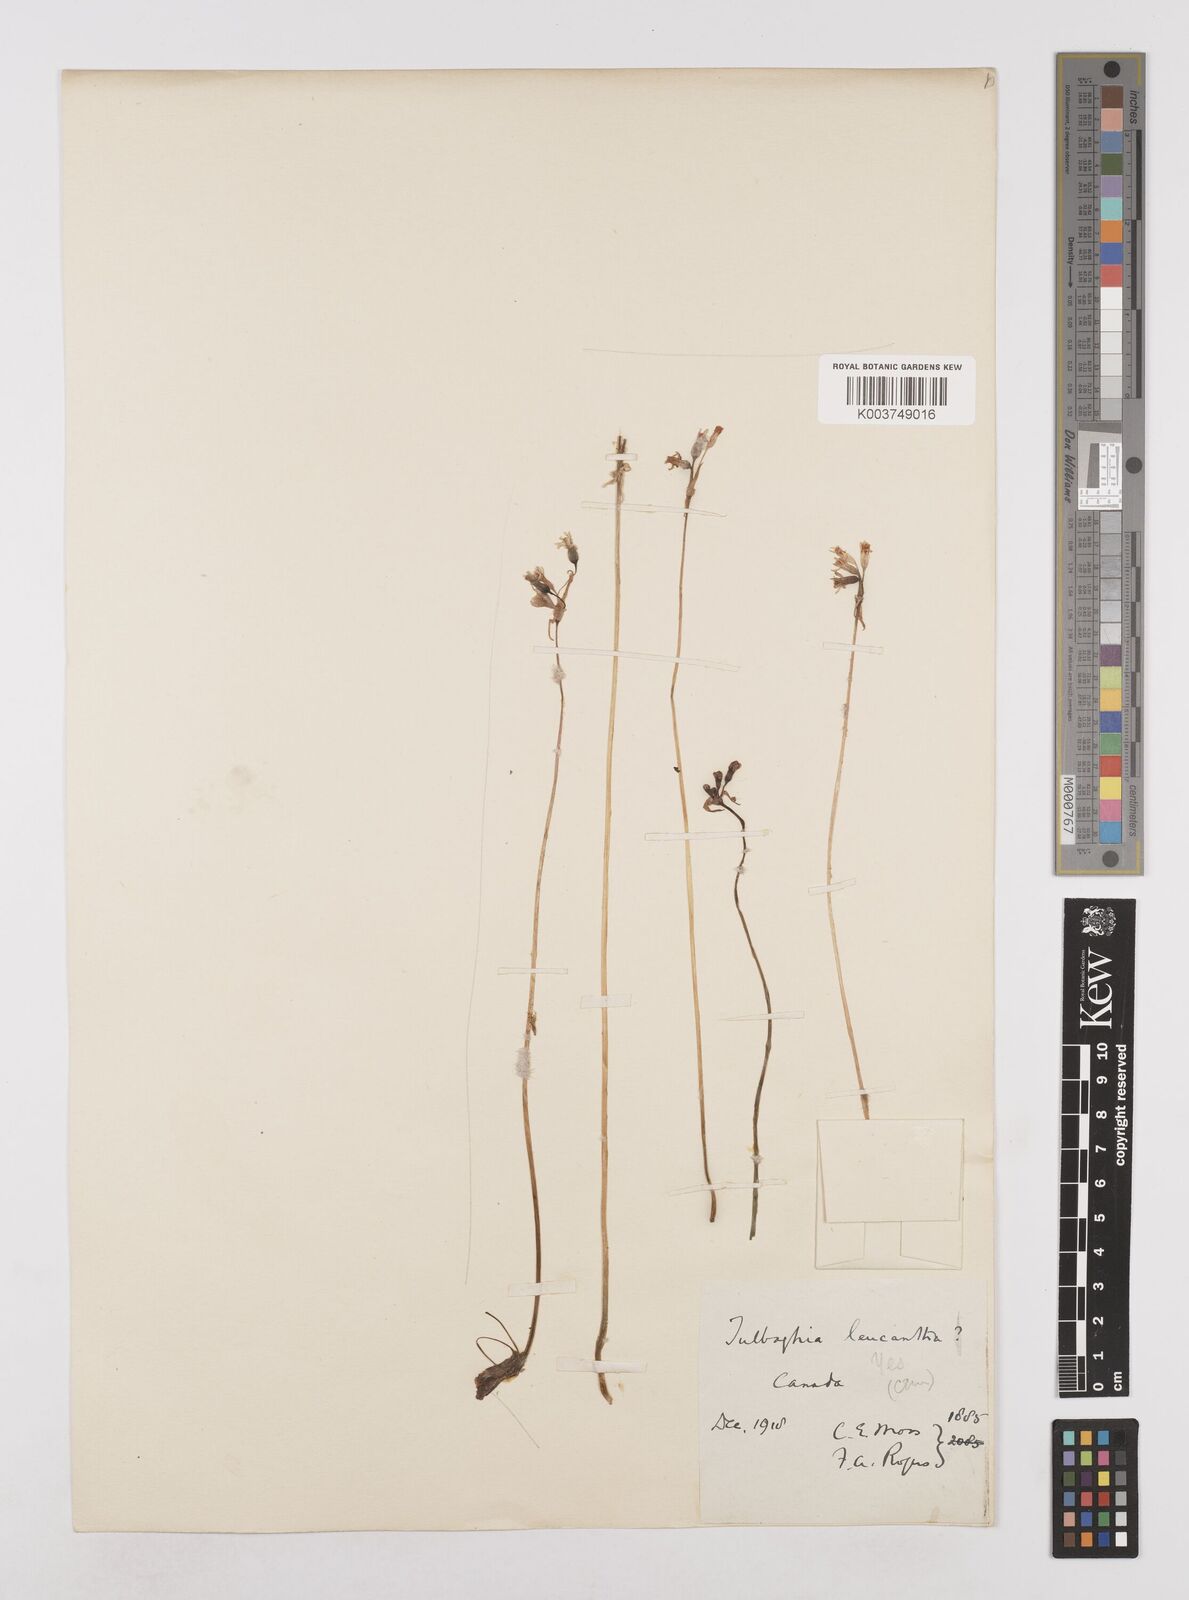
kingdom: Plantae
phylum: Tracheophyta
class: Liliopsida
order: Asparagales
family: Amaryllidaceae
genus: Tulbaghia
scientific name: Tulbaghia leucantha
